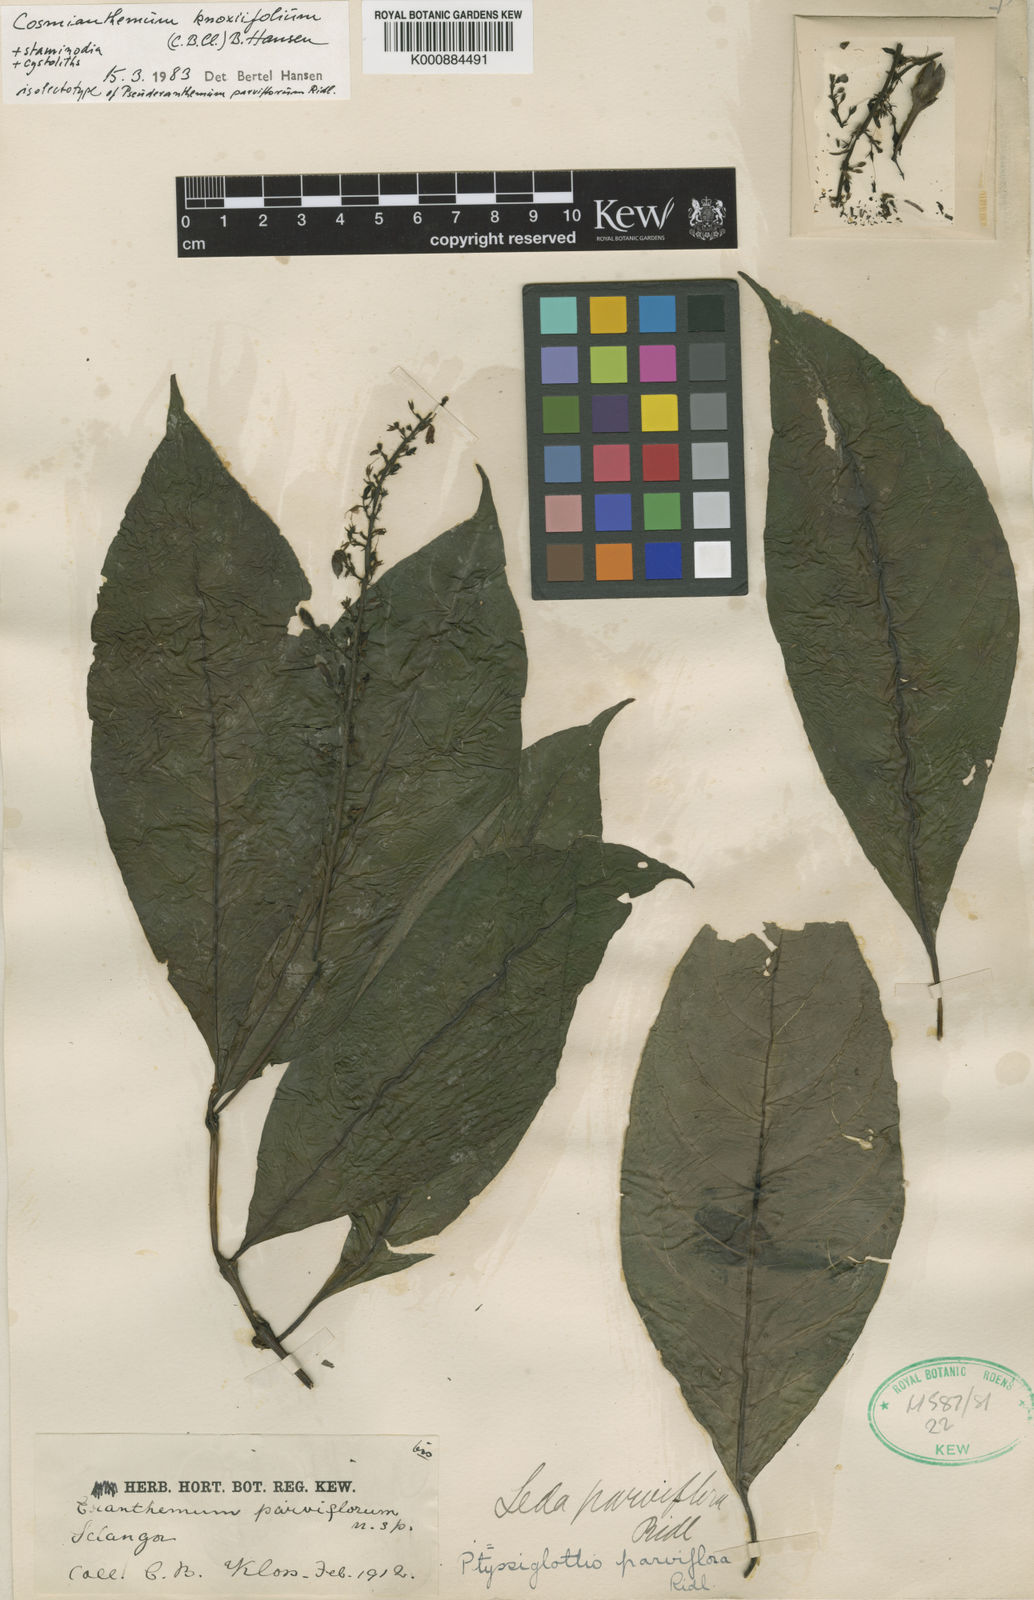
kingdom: Plantae
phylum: Tracheophyta
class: Magnoliopsida
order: Lamiales
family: Acanthaceae
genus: Cosmianthemum
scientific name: Cosmianthemum knoxiifolium
